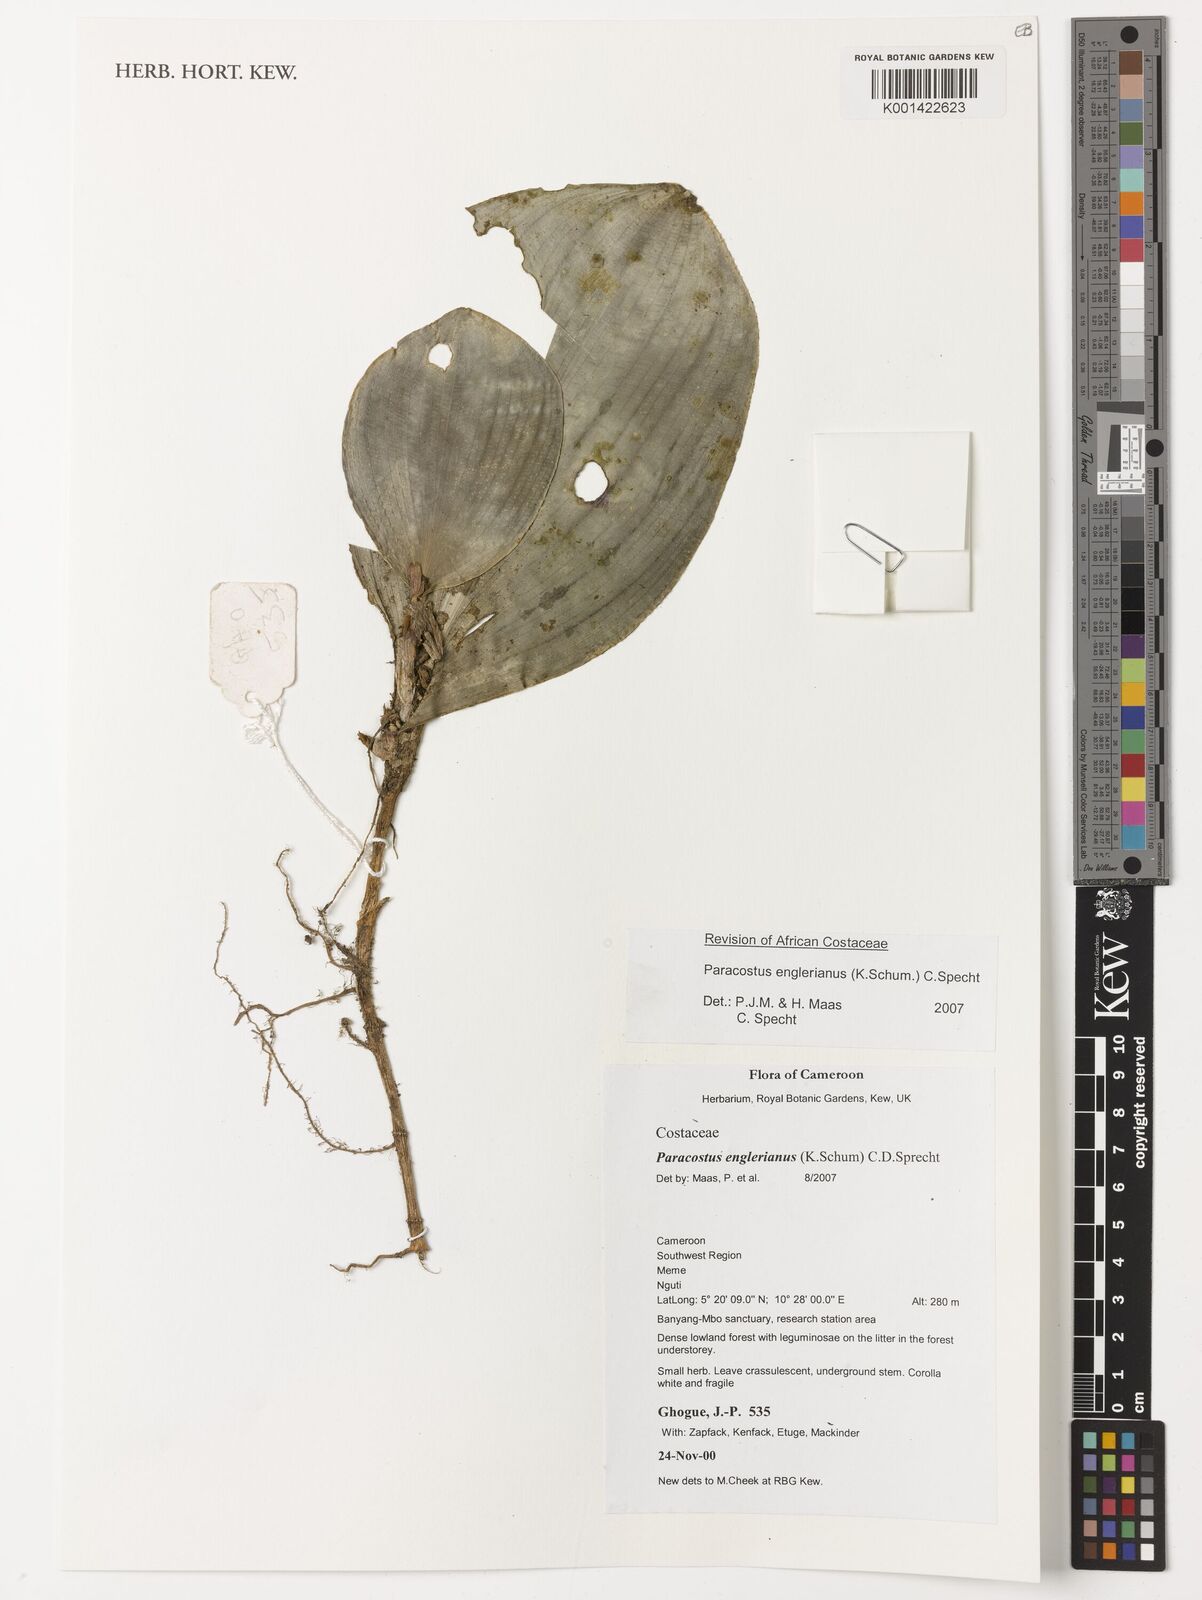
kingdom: Plantae
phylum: Tracheophyta
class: Liliopsida
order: Zingiberales
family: Costaceae
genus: Paracostus
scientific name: Paracostus englerianus
